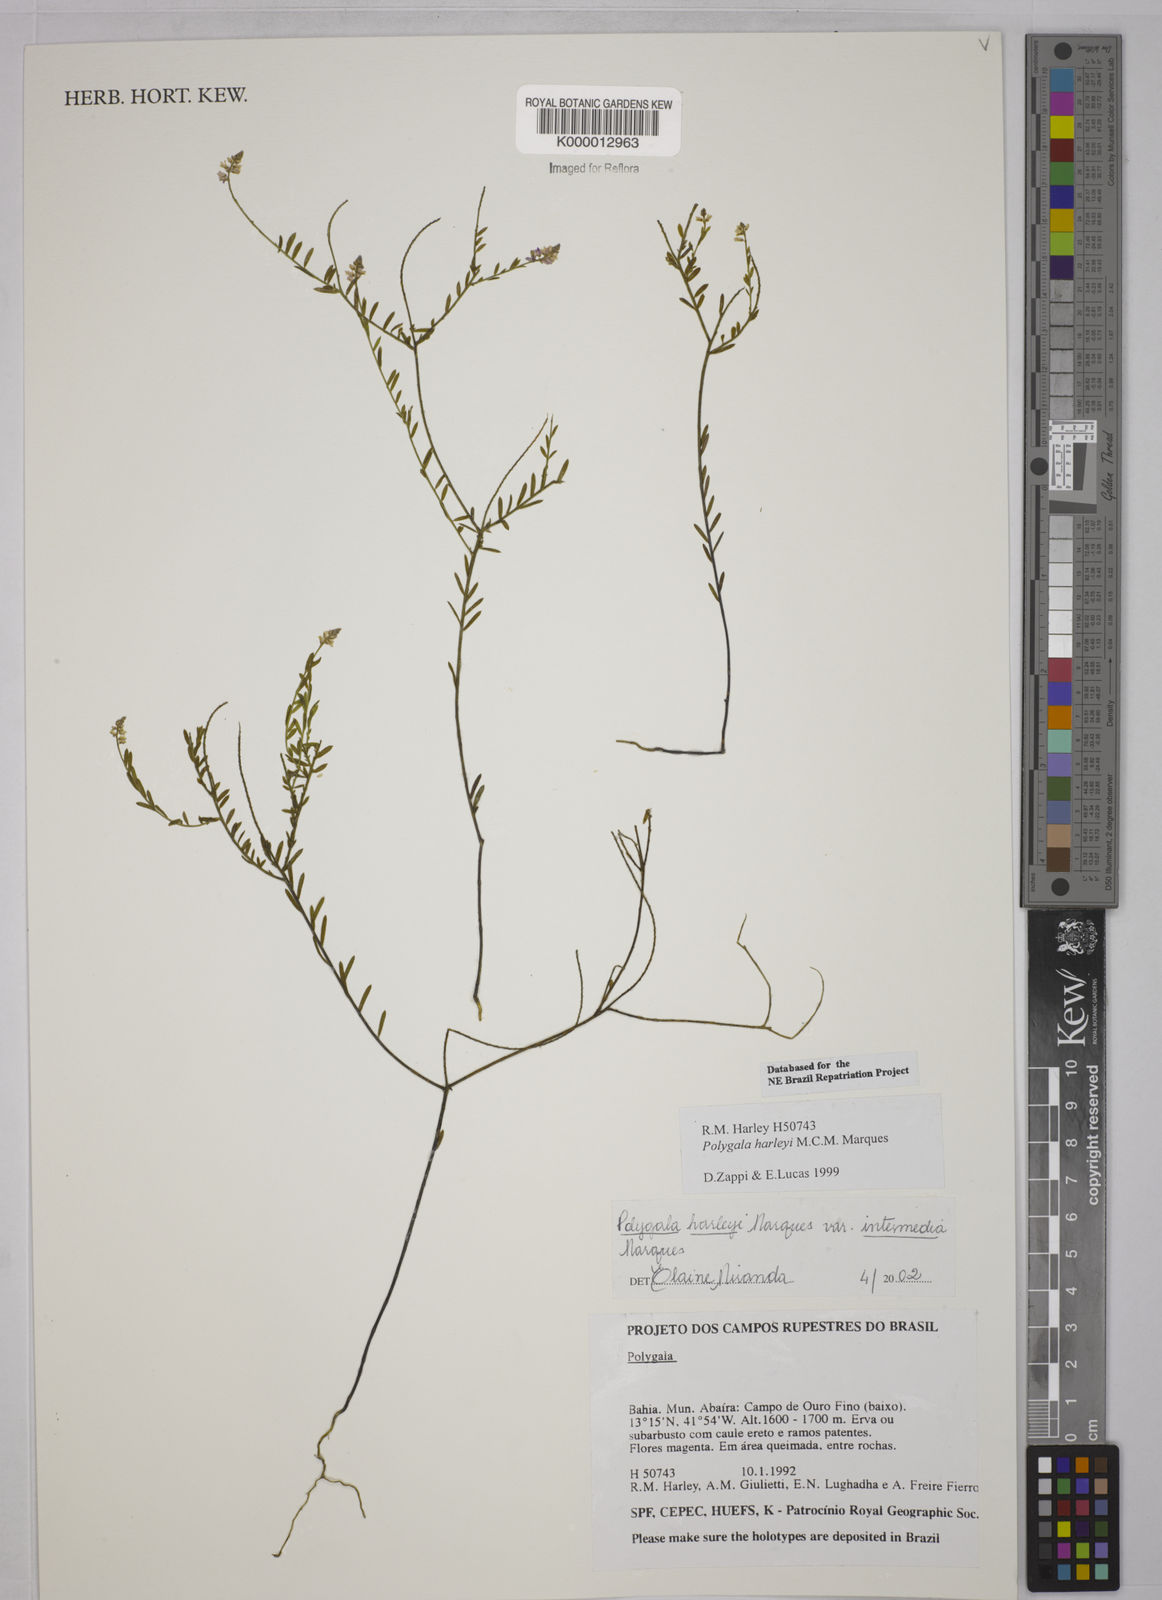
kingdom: Plantae
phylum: Tracheophyta
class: Magnoliopsida
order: Fabales
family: Polygalaceae
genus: Polygala
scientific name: Polygala
